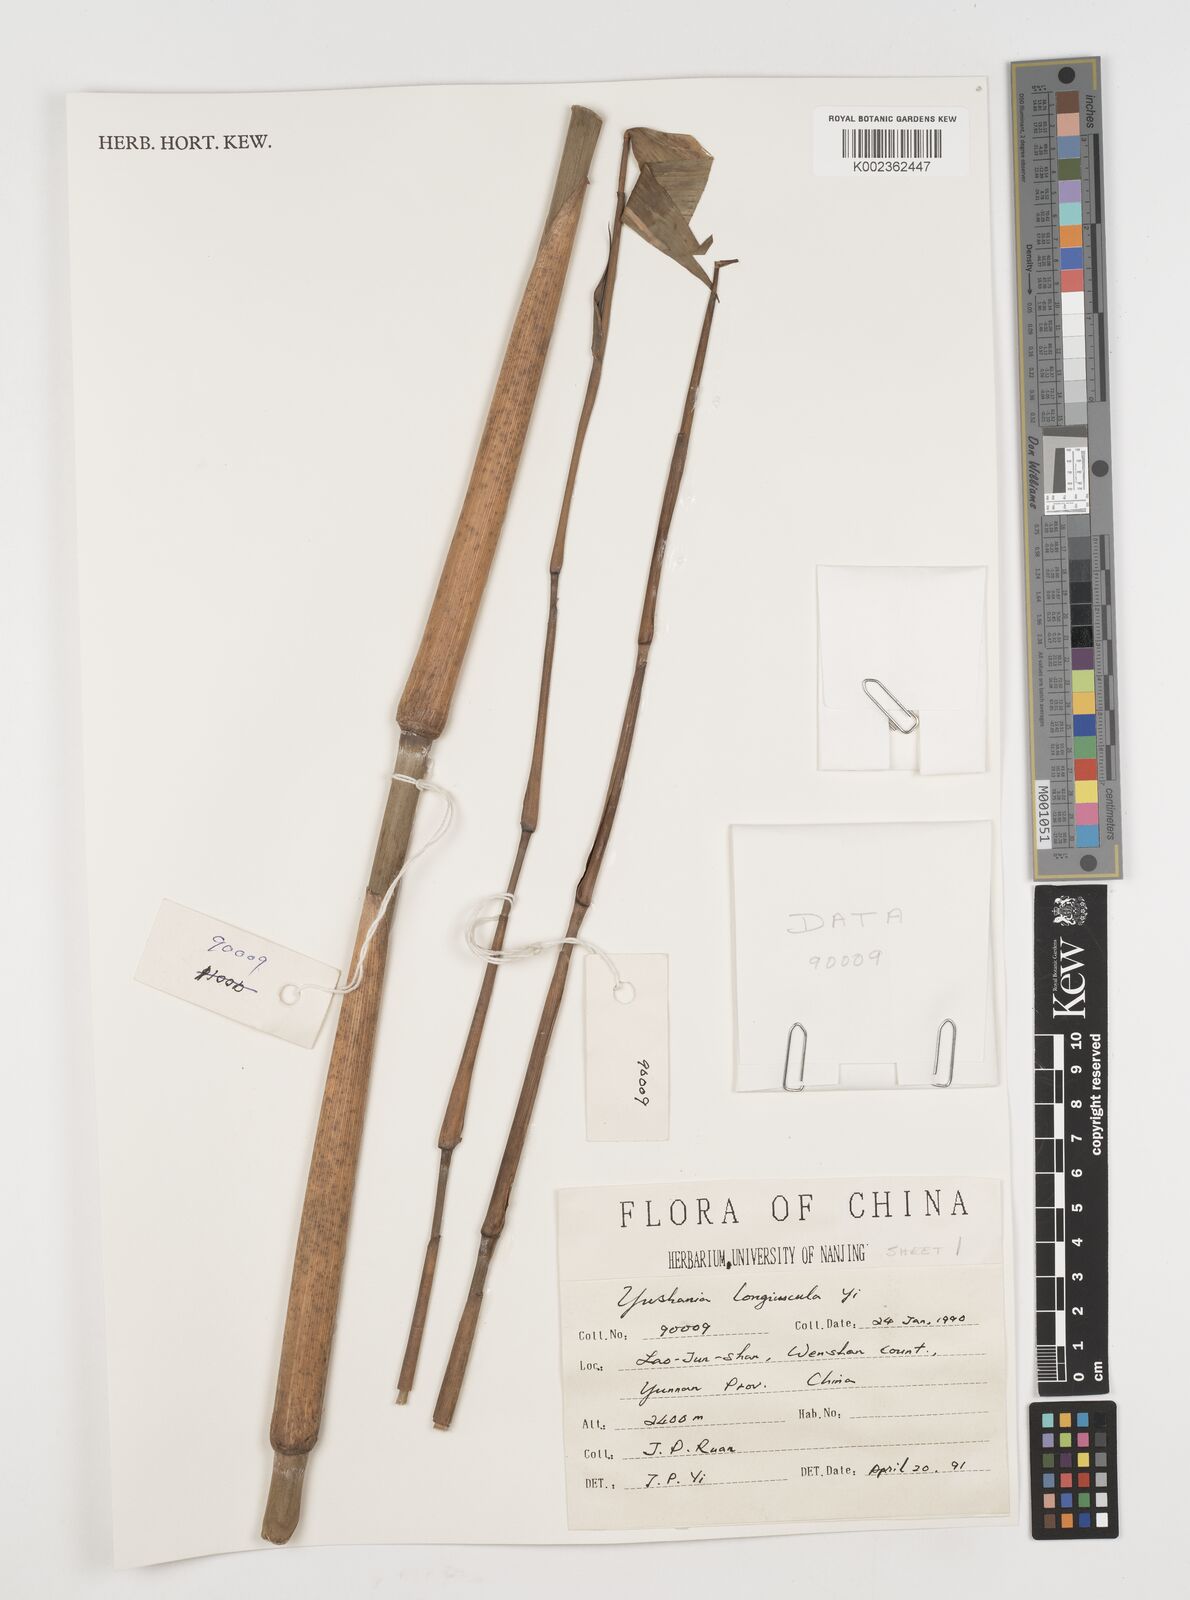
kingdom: Plantae
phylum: Tracheophyta
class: Liliopsida
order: Poales
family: Poaceae
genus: Chimonocalamus
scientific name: Chimonocalamus longiusculus
